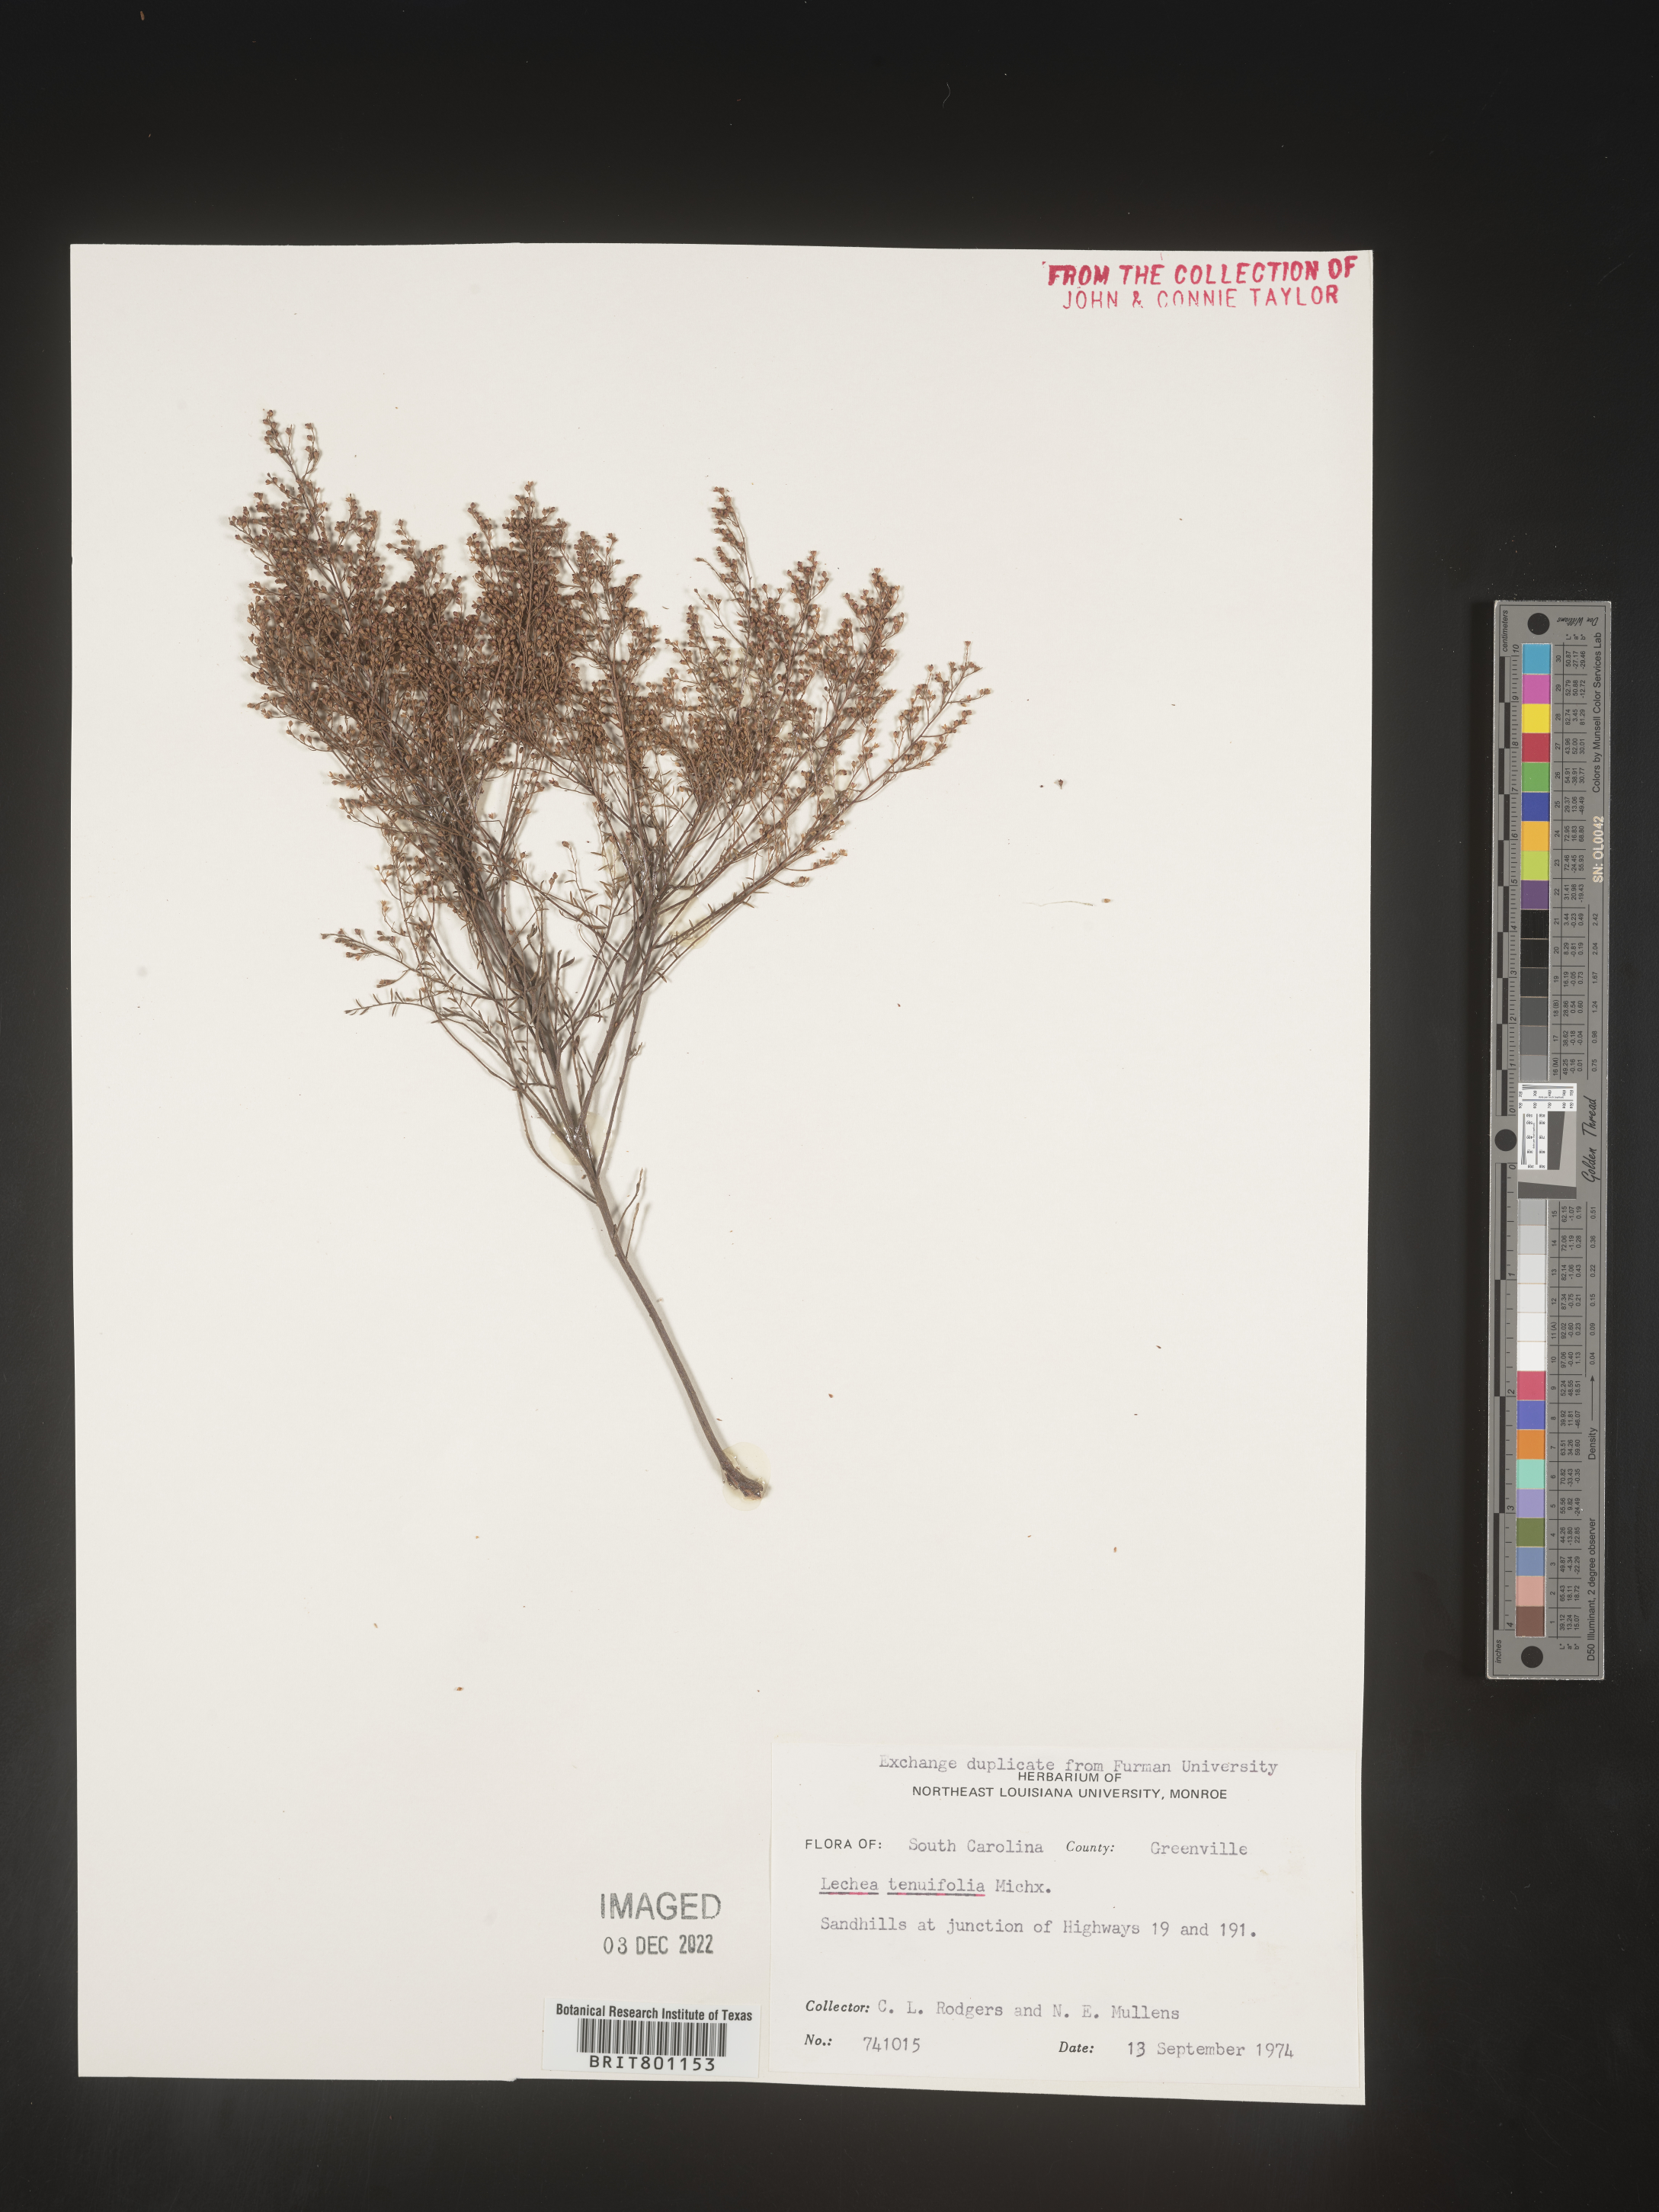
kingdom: Plantae
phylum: Tracheophyta
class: Magnoliopsida
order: Malvales
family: Cistaceae
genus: Lechea
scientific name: Lechea tenuifolia
